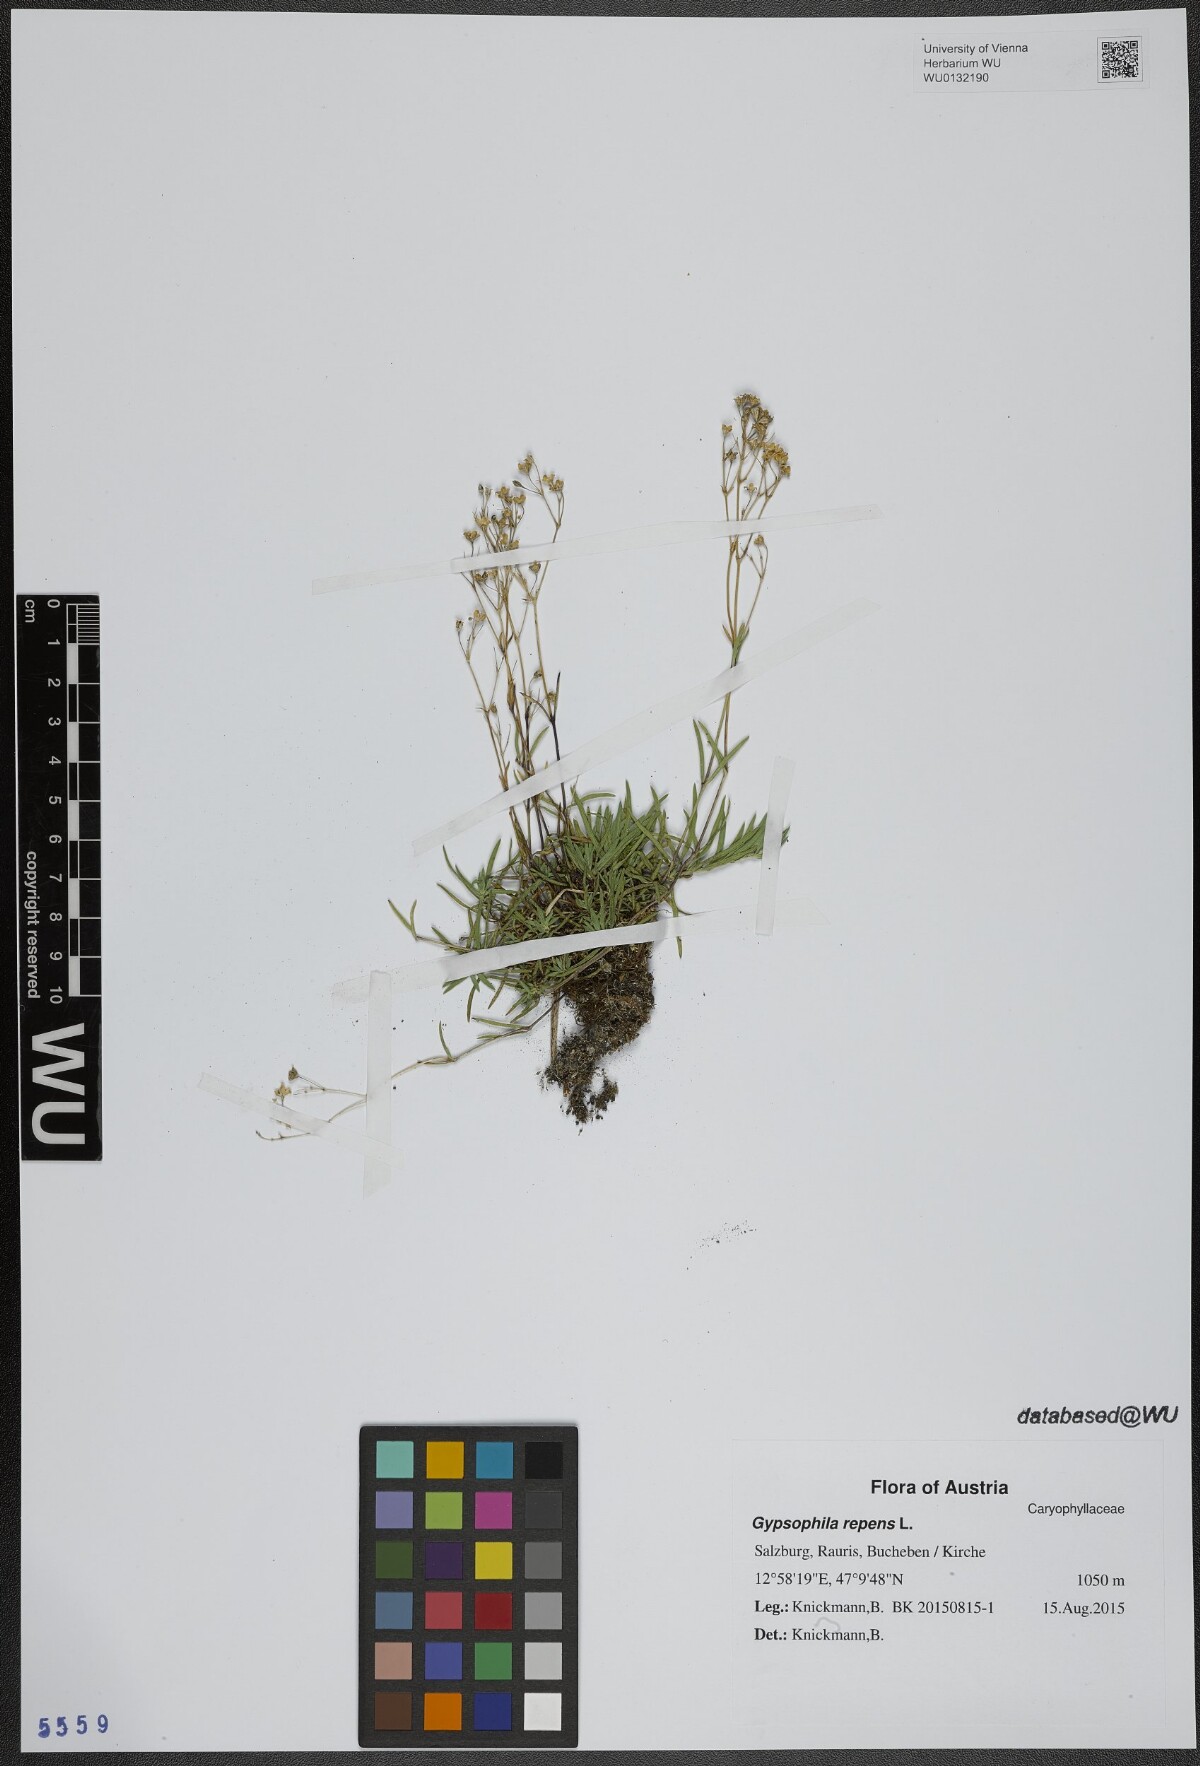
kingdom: Plantae
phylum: Tracheophyta
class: Magnoliopsida
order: Caryophyllales
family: Caryophyllaceae
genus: Gypsophila
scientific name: Gypsophila repens
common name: Creeping baby's-breath
